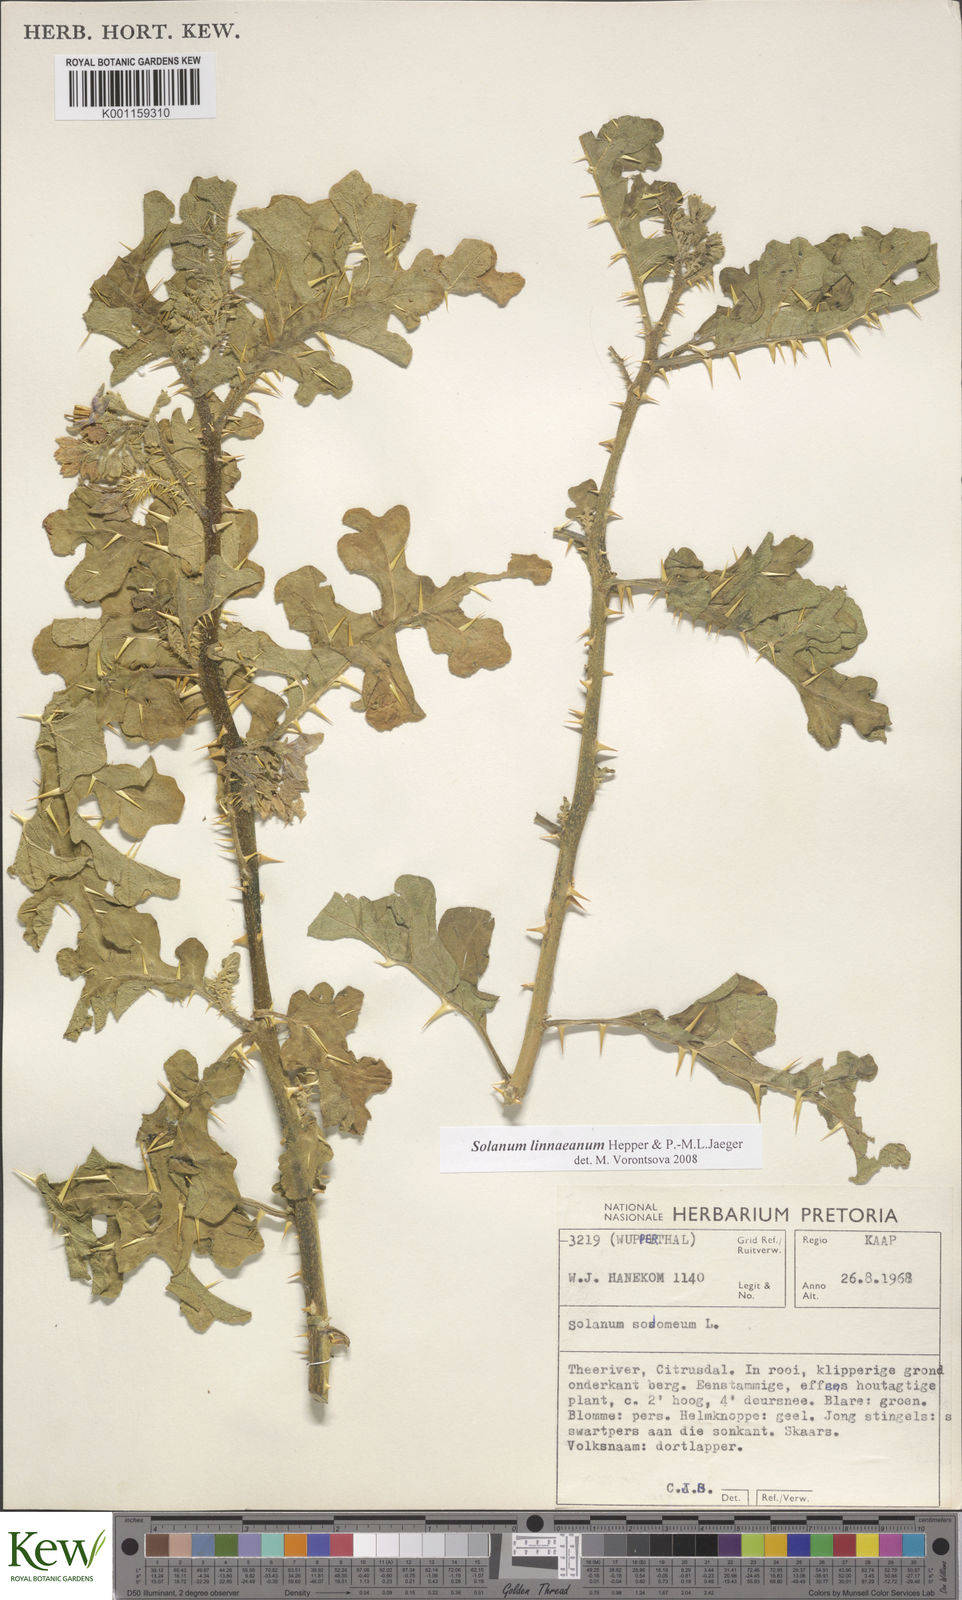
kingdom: Plantae
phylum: Tracheophyta
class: Magnoliopsida
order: Solanales
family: Solanaceae
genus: Solanum
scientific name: Solanum linnaeanum
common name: Nightshade
